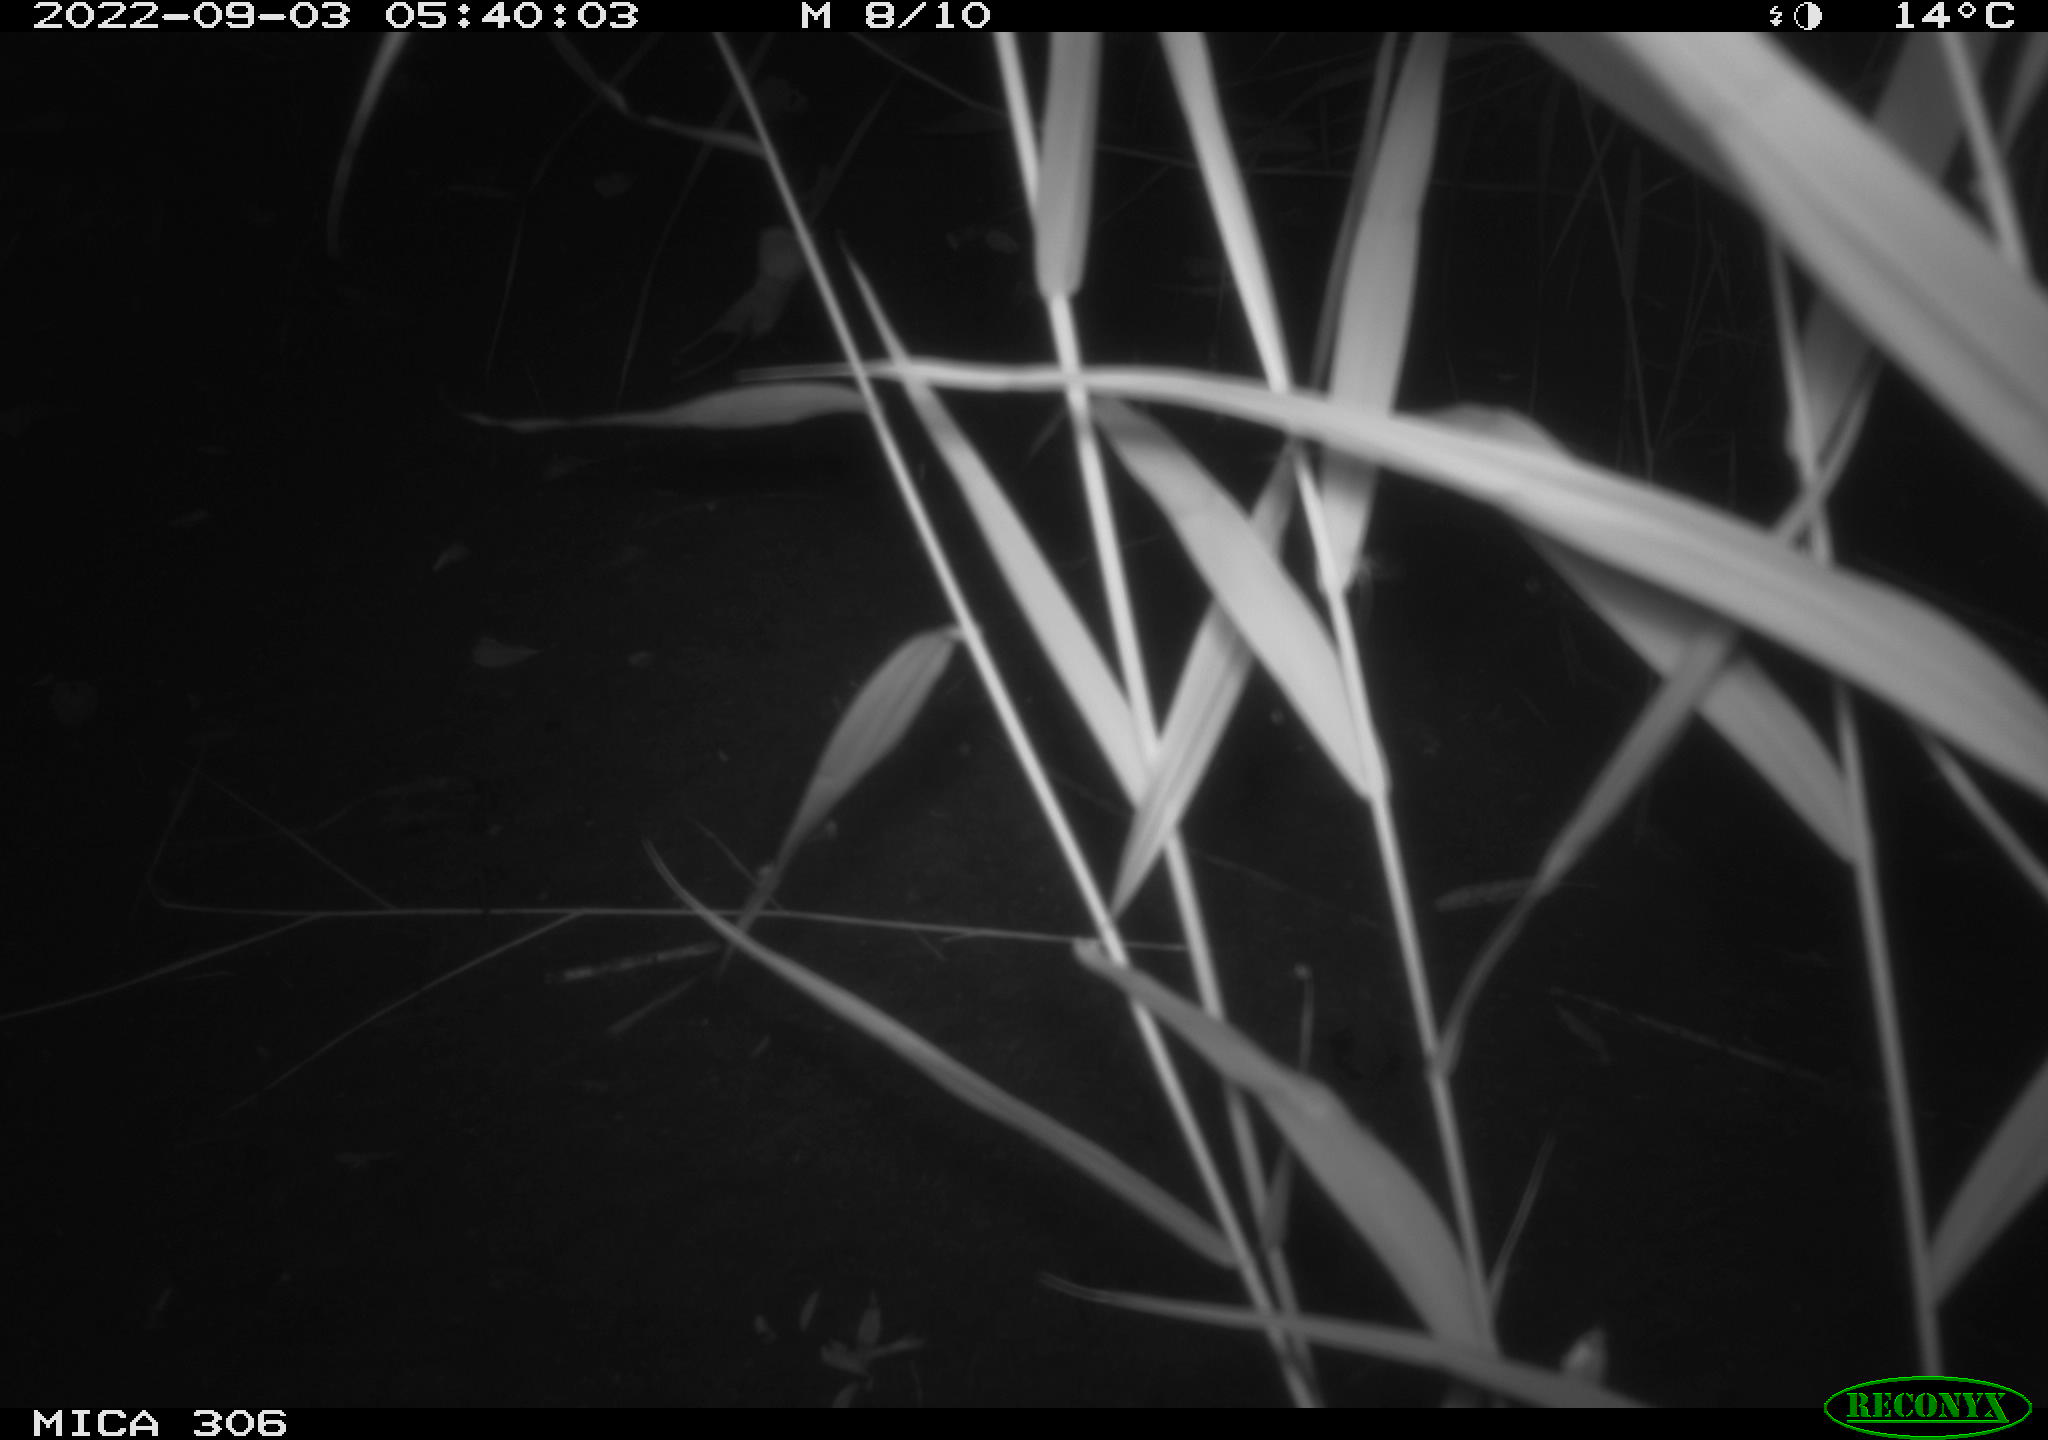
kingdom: Animalia
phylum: Chordata
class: Mammalia
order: Rodentia
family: Muridae
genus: Rattus
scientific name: Rattus norvegicus
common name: Brown rat
